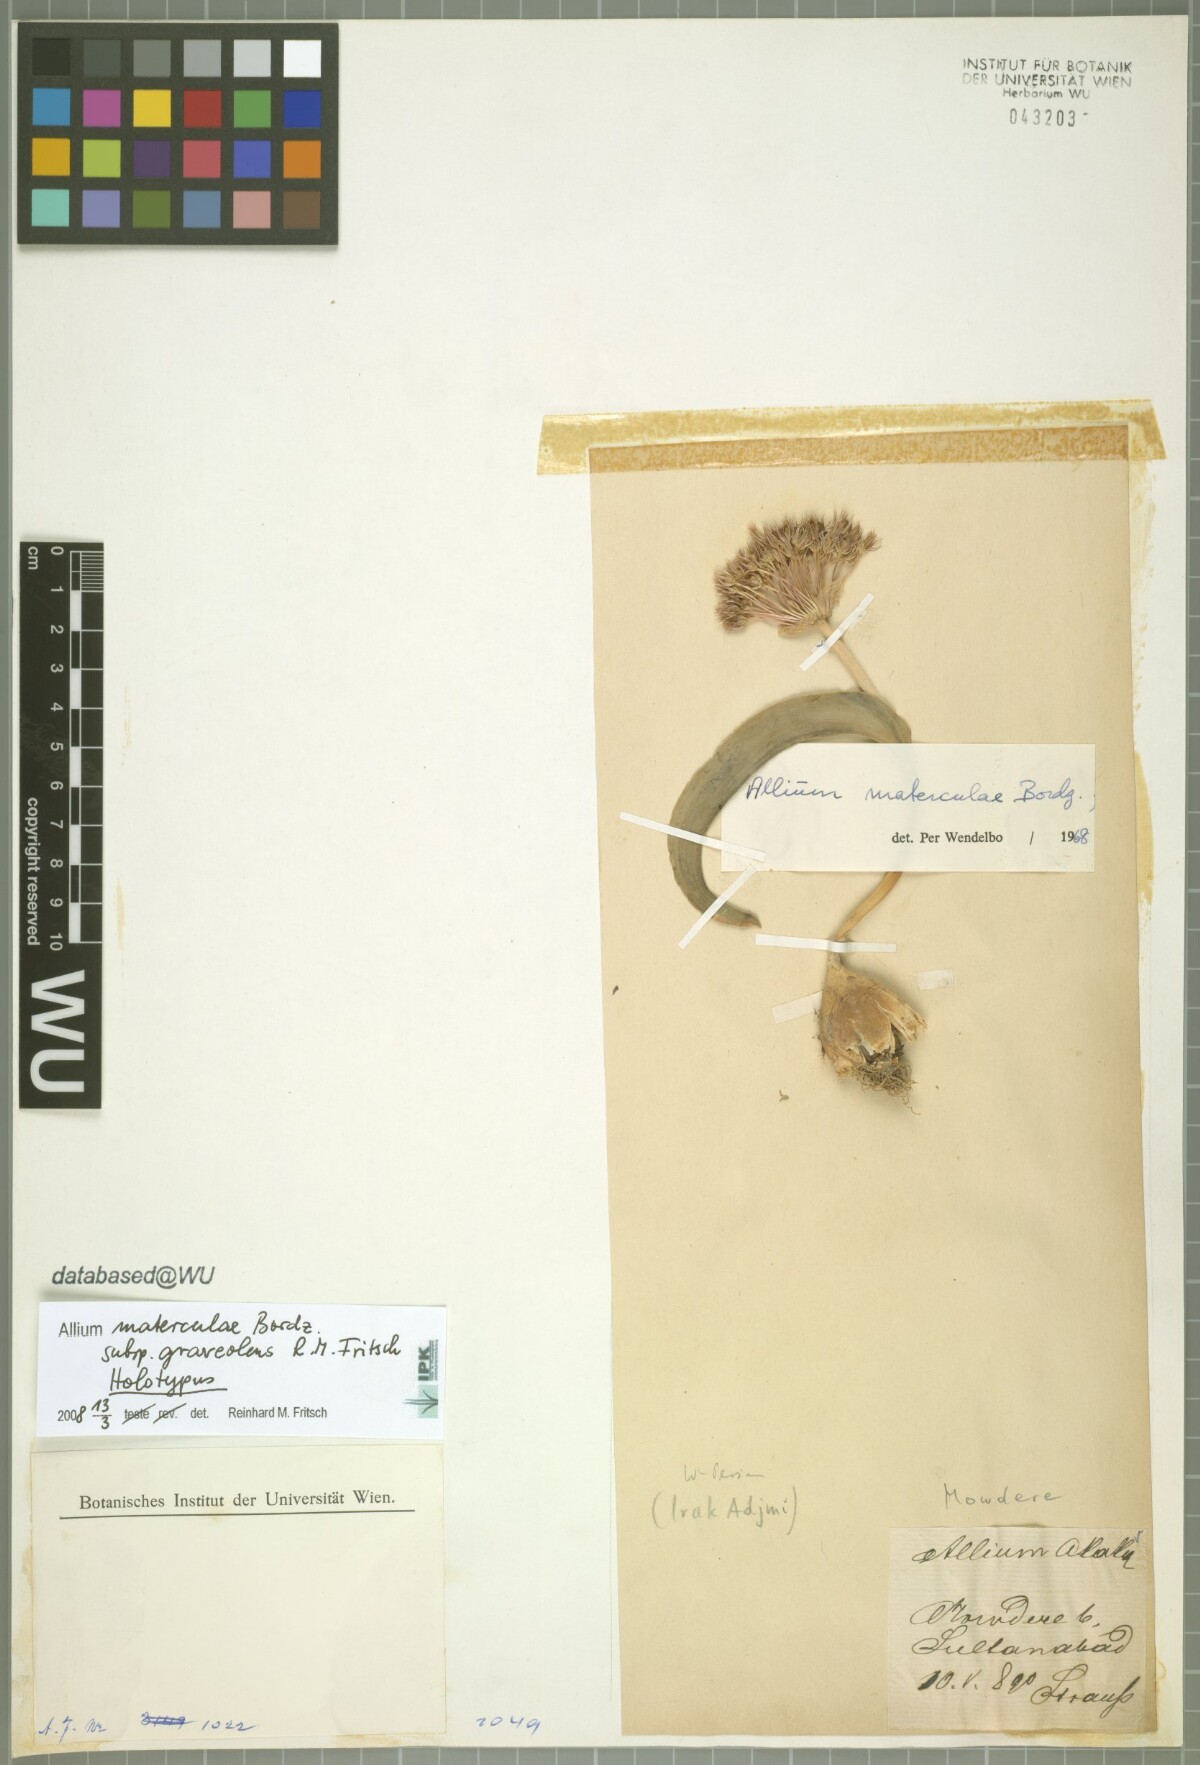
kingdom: Plantae
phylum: Tracheophyta
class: Liliopsida
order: Asparagales
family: Amaryllidaceae
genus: Allium
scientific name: Allium graveolens
